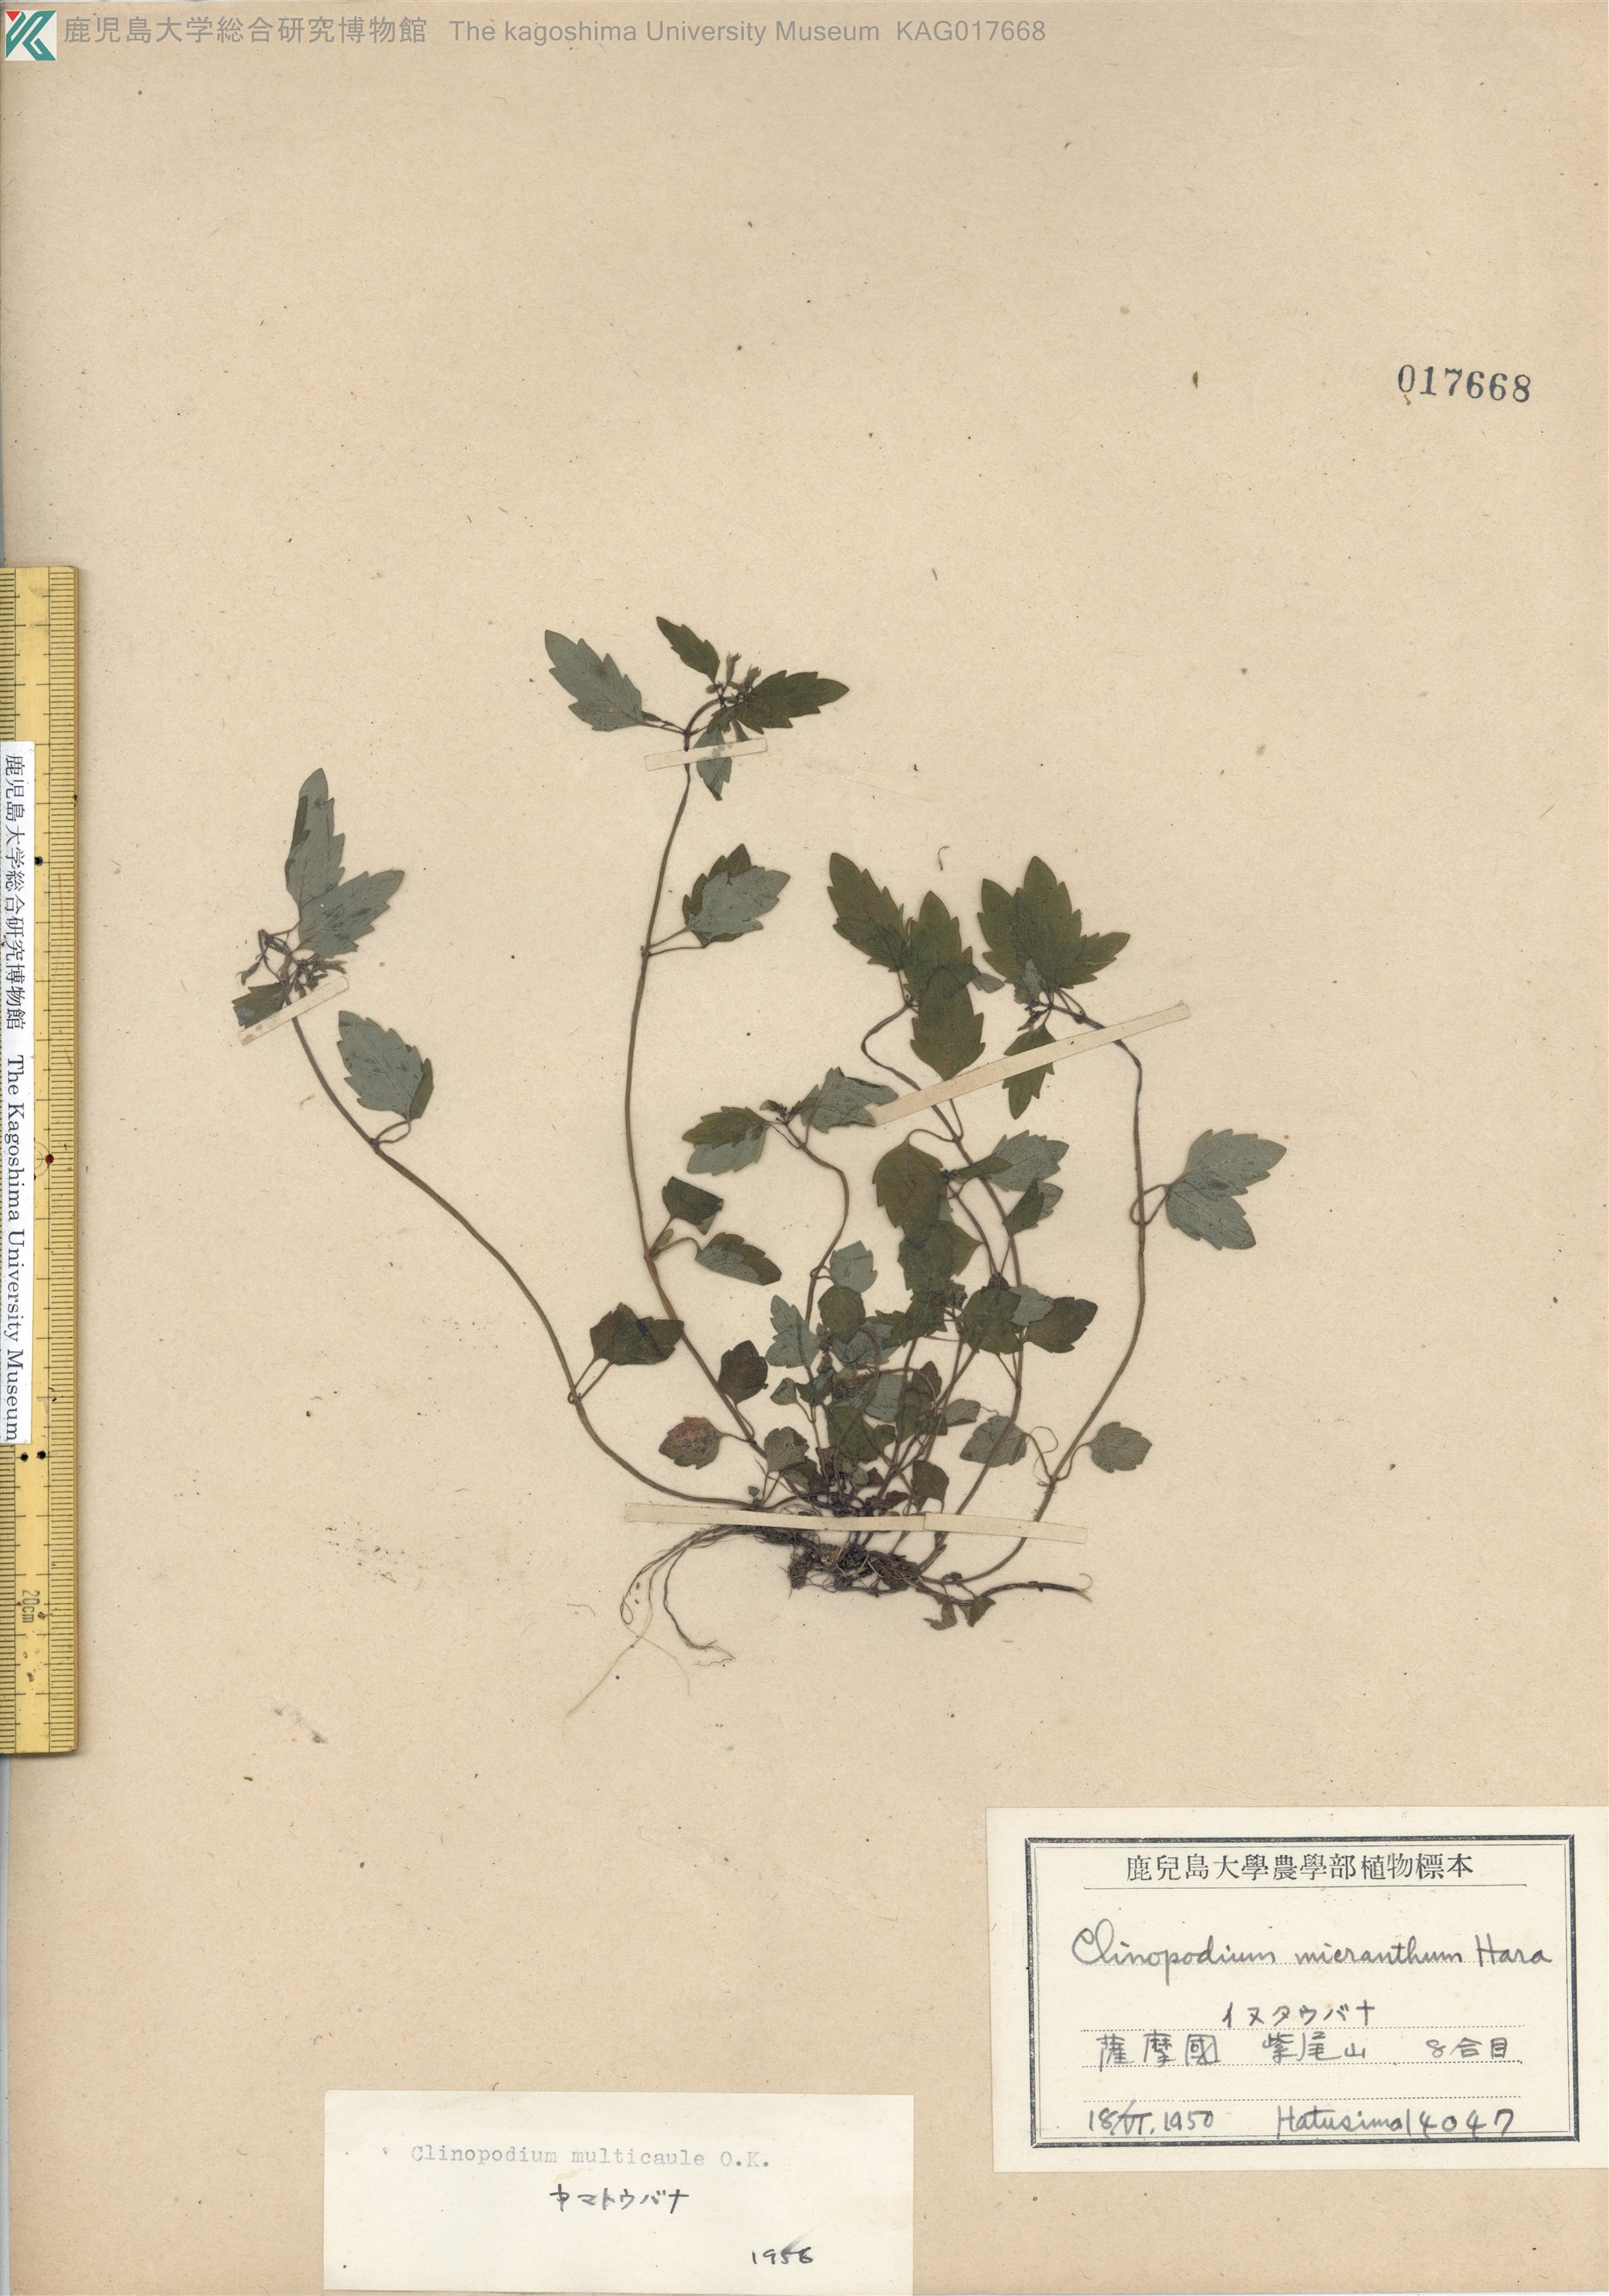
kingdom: Plantae
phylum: Tracheophyta
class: Magnoliopsida
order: Lamiales
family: Lamiaceae
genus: Clinopodium
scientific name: Clinopodium multicaule
